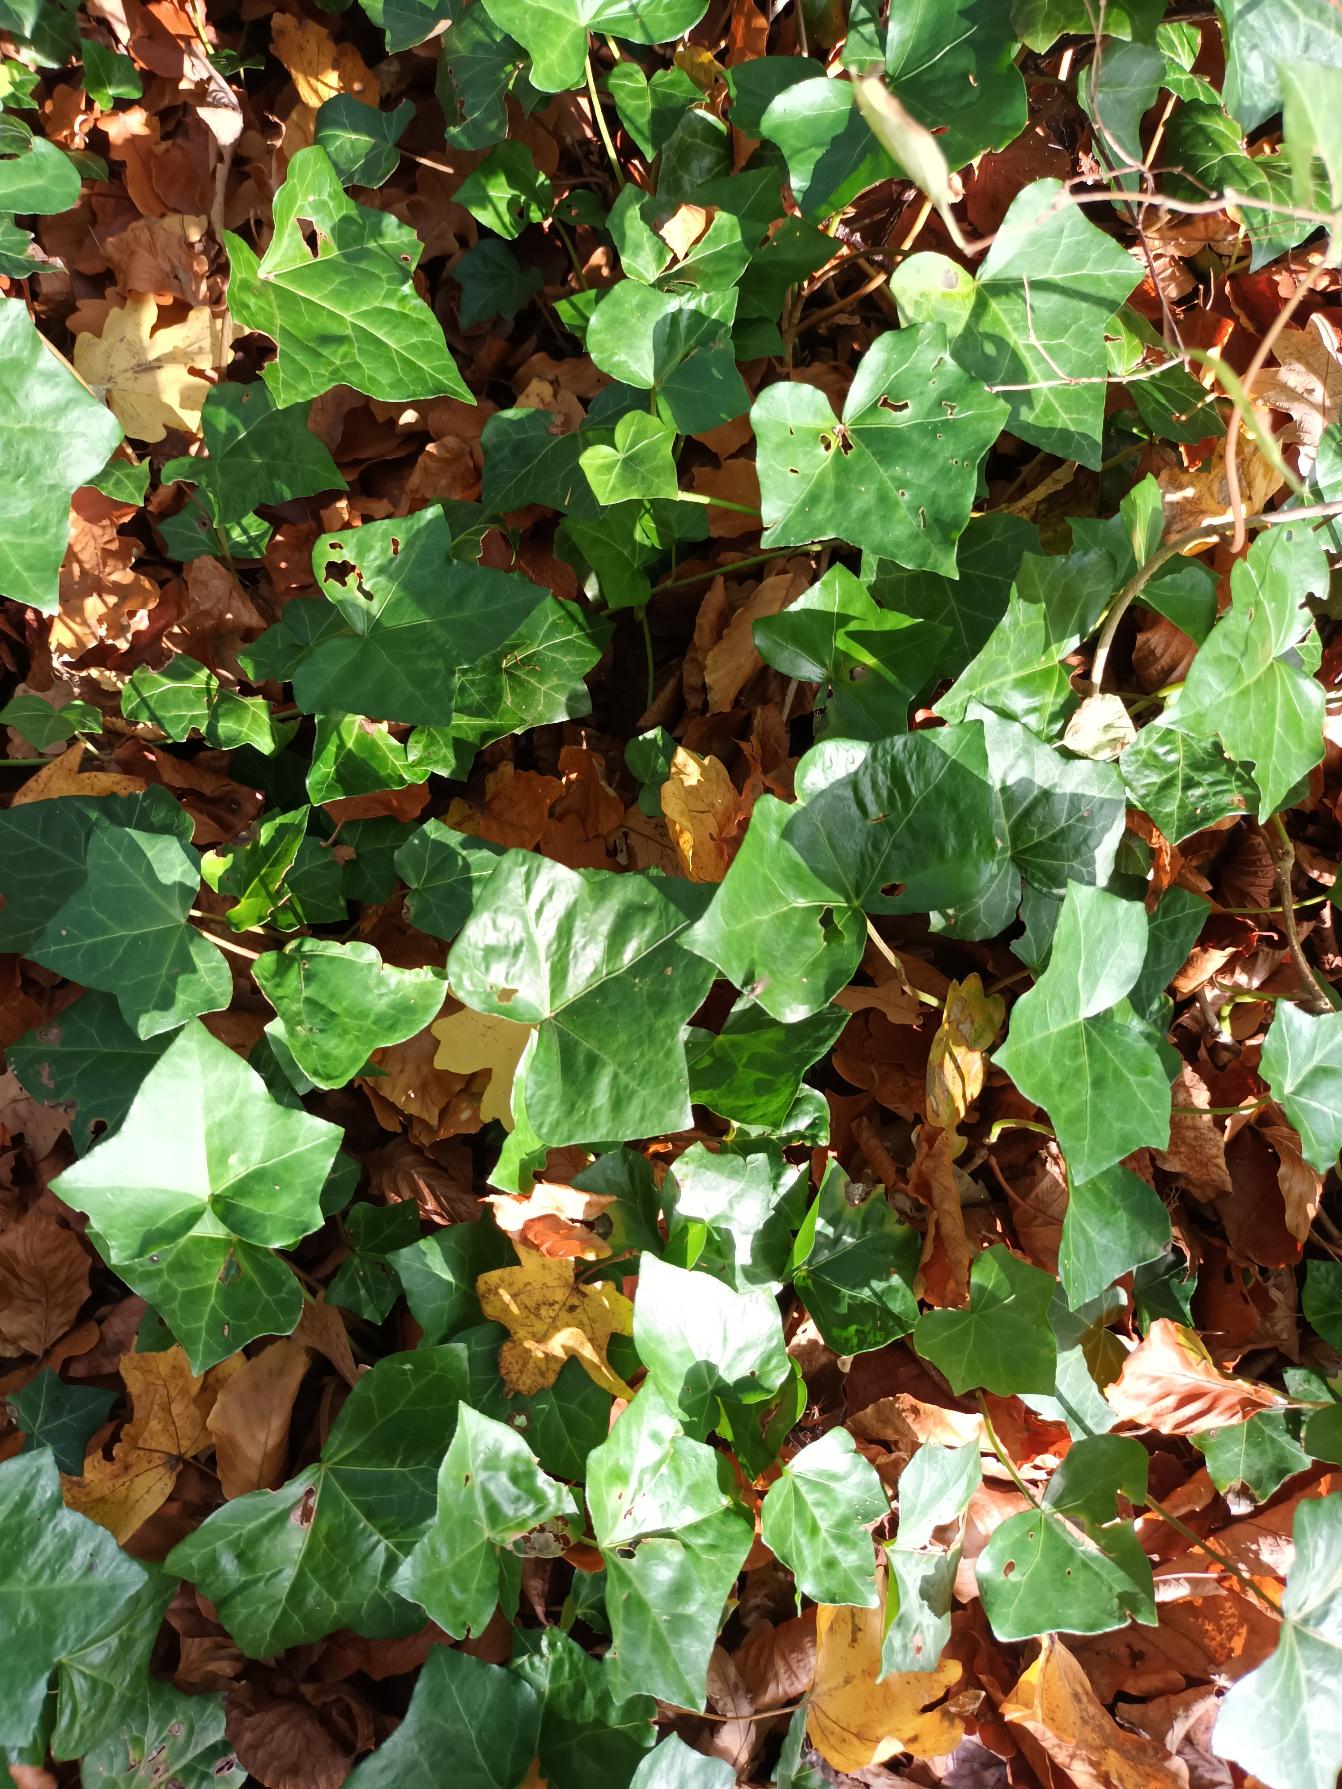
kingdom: Plantae
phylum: Tracheophyta
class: Magnoliopsida
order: Apiales
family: Araliaceae
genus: Hedera
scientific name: Hedera hibernica
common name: Irsk vedbend
